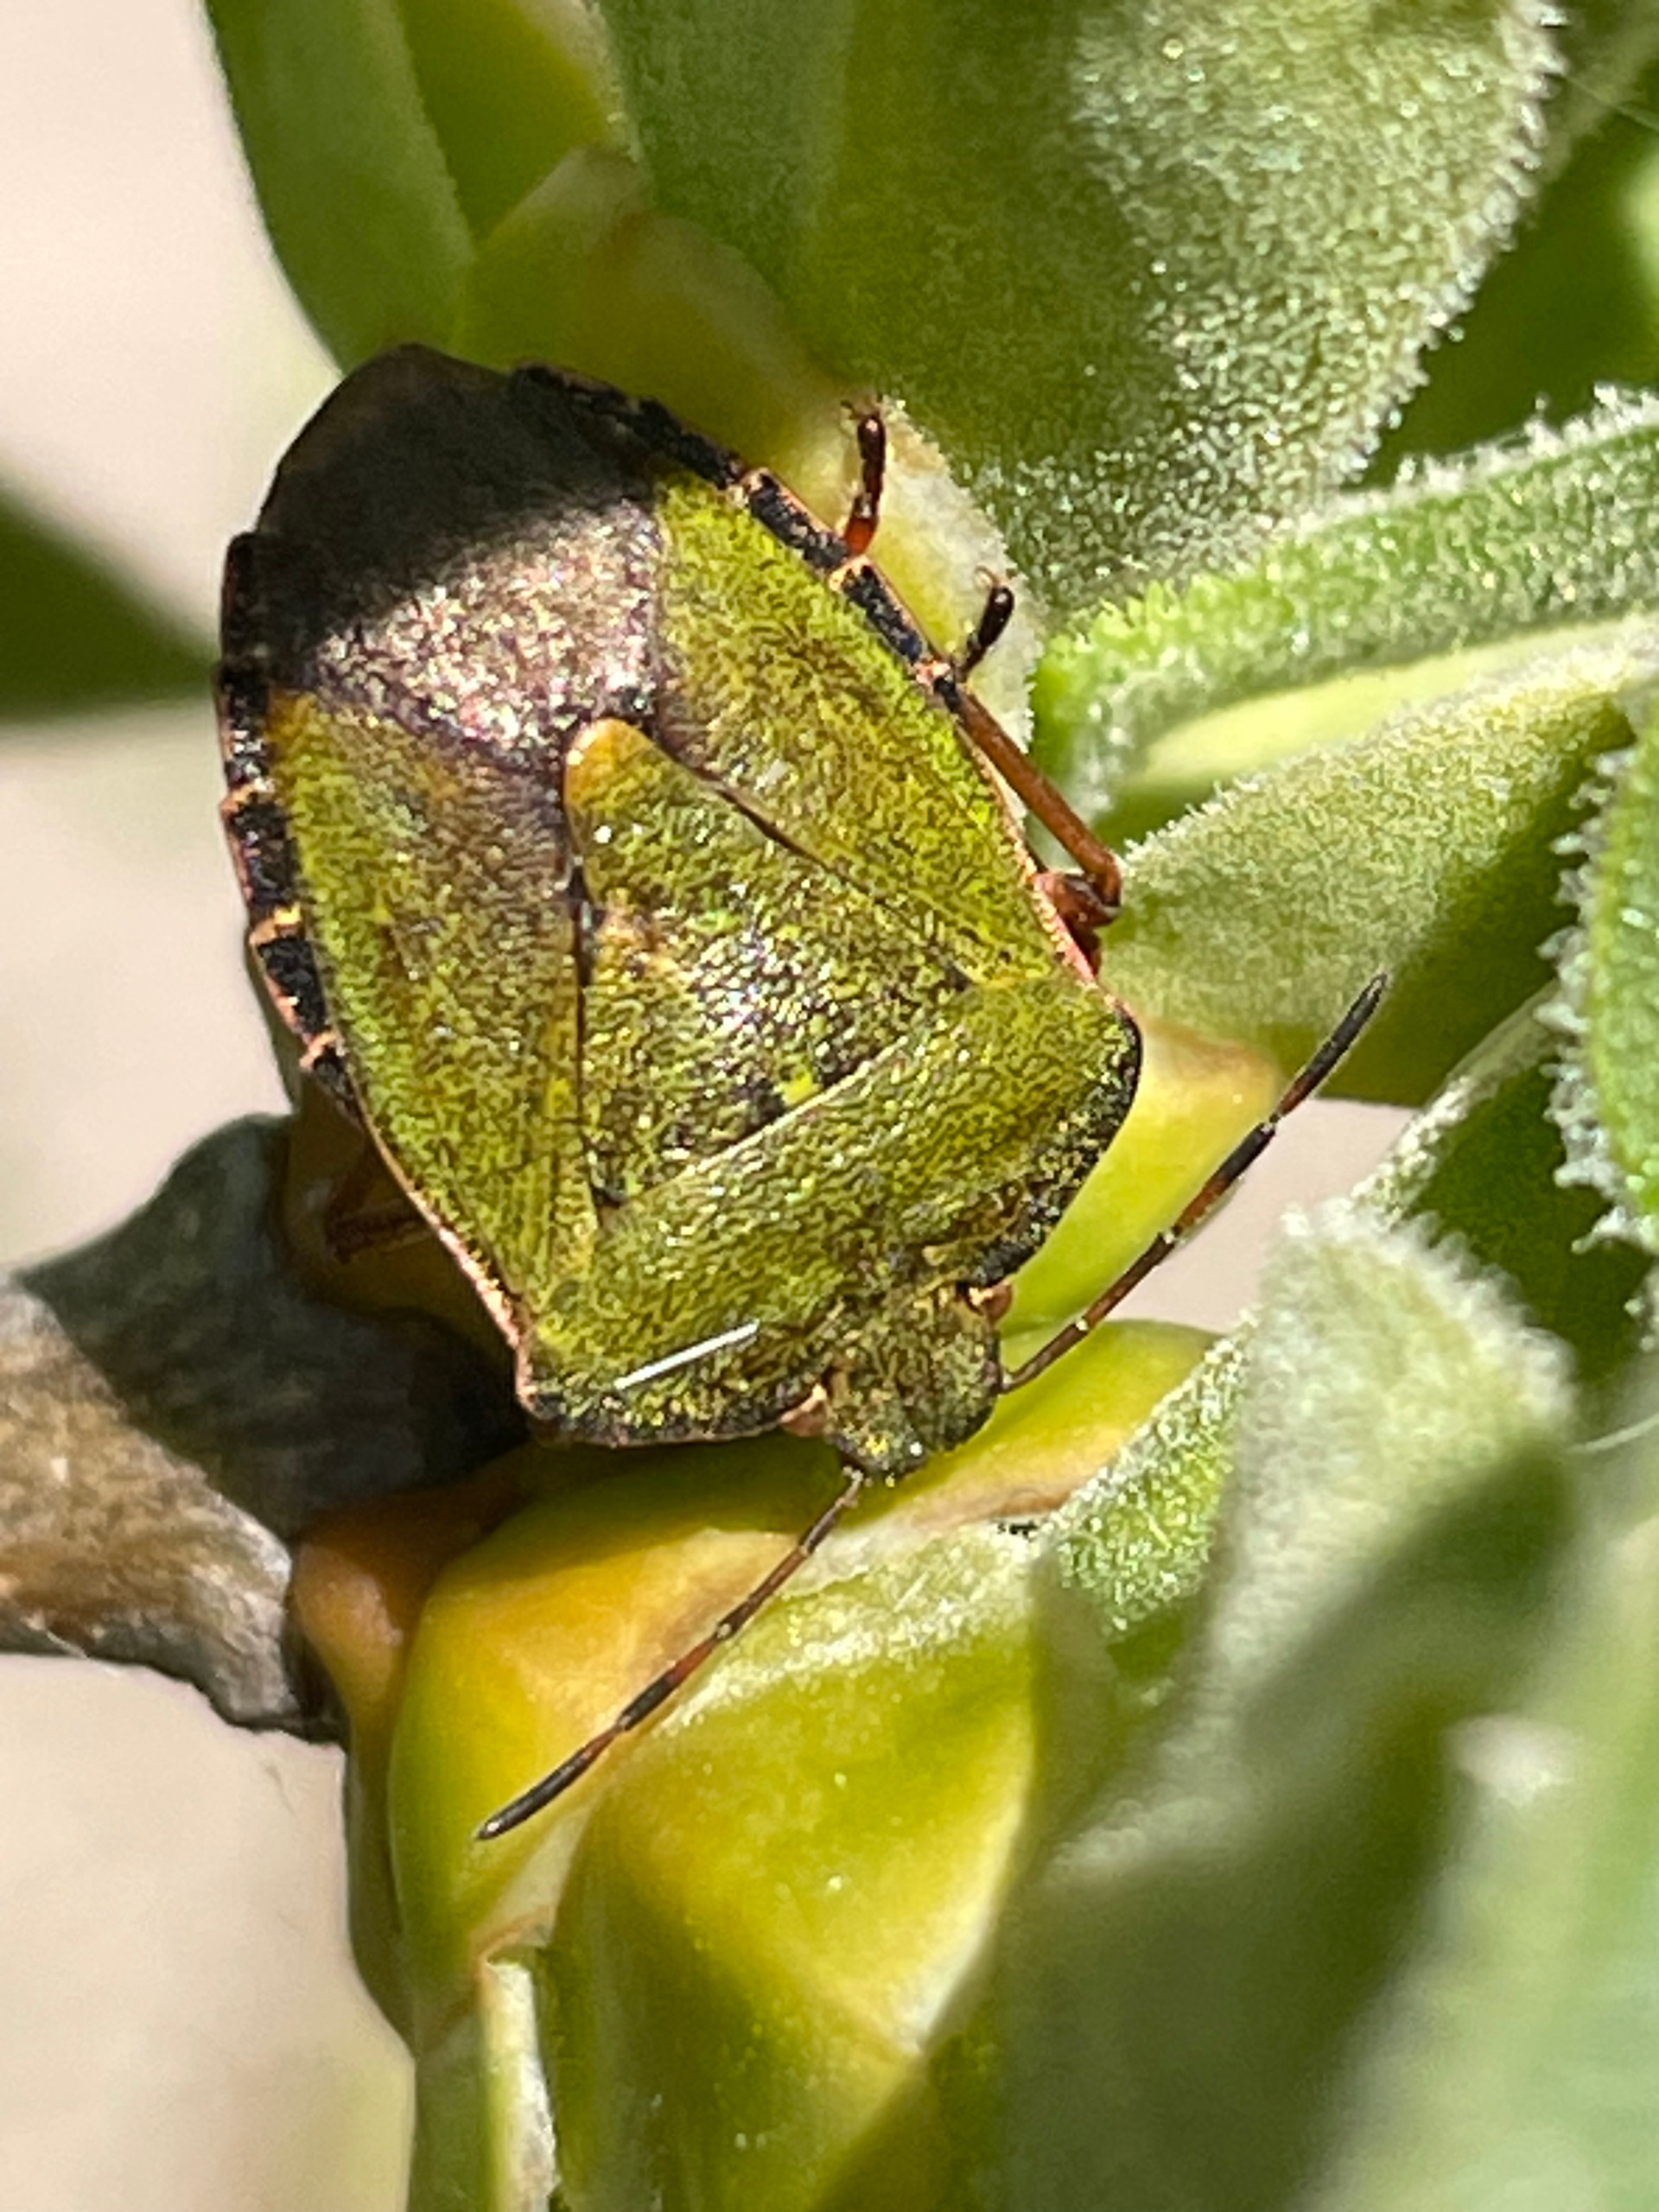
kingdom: Animalia
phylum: Arthropoda
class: Insecta
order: Hemiptera
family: Pentatomidae
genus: Palomena
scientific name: Palomena prasina
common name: Grøn bredtæge
